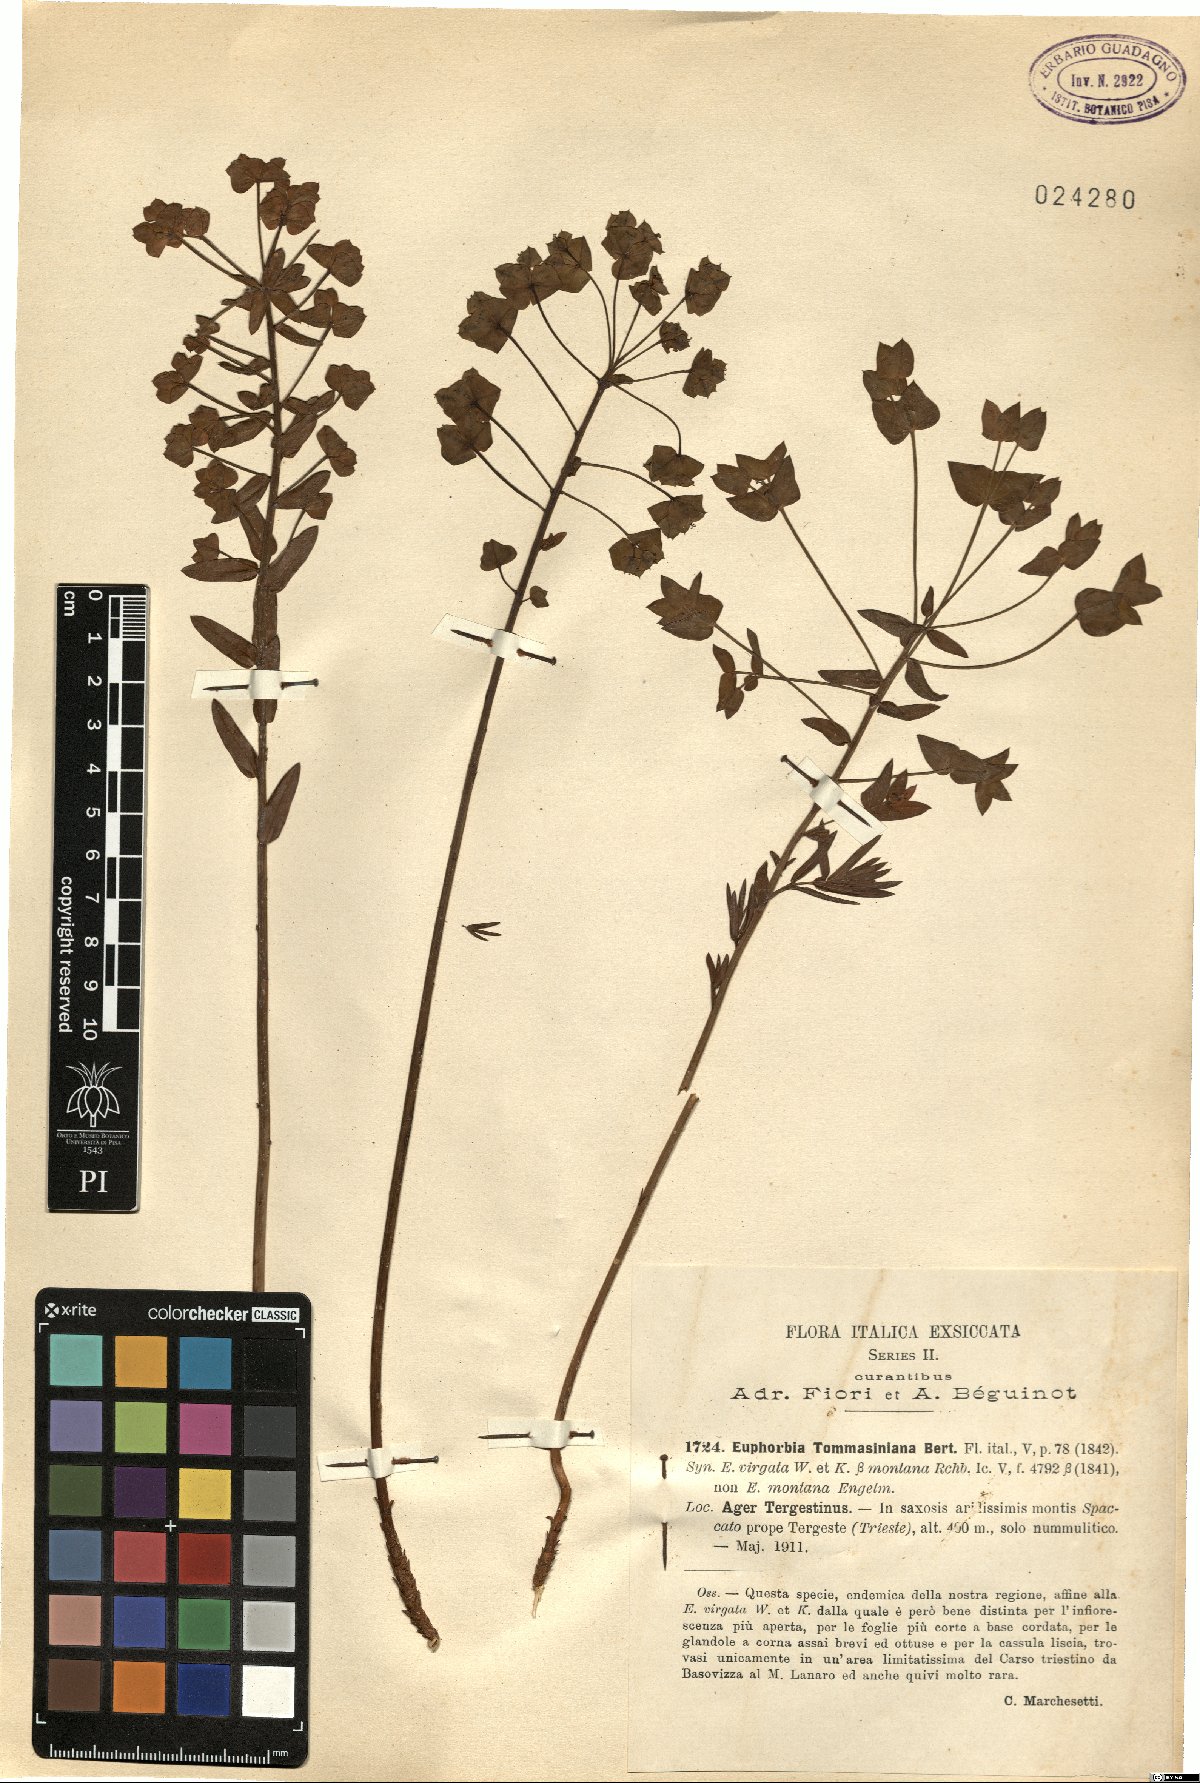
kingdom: Plantae
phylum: Tracheophyta
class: Magnoliopsida
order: Malpighiales
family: Euphorbiaceae
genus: Euphorbia
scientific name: Euphorbia tommasiniana
